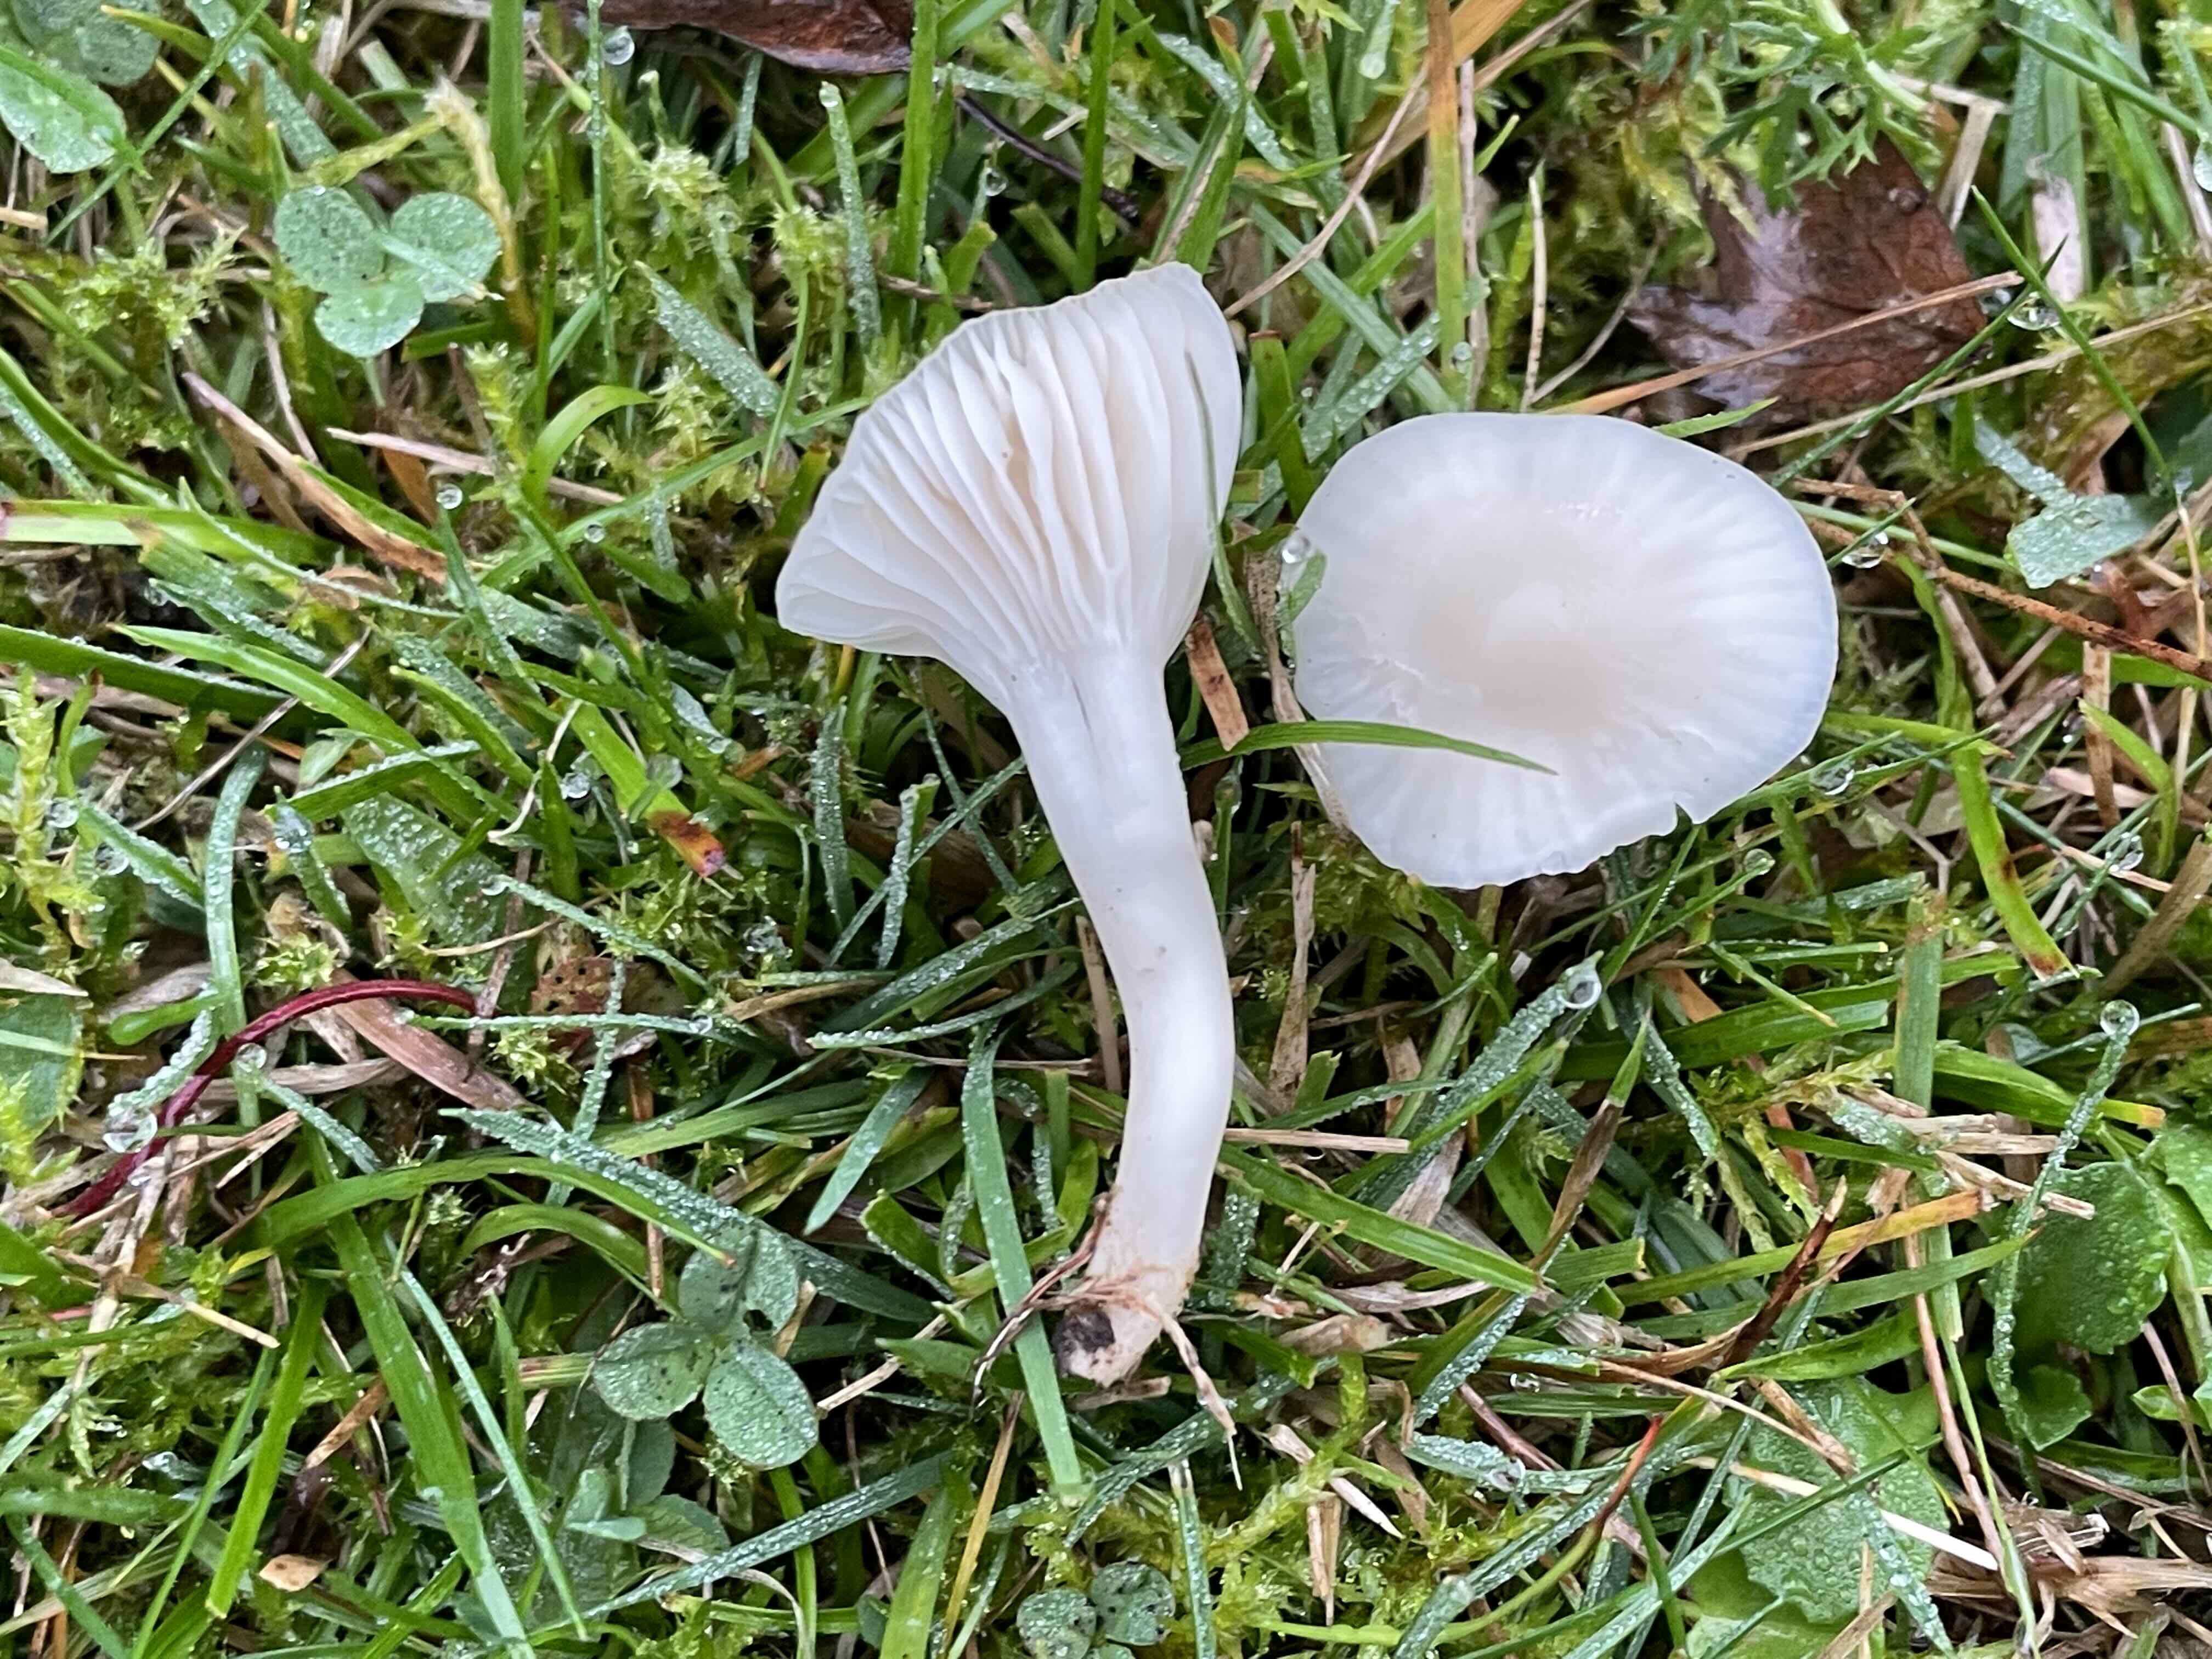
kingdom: Fungi
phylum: Basidiomycota
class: Agaricomycetes
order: Agaricales
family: Hygrophoraceae
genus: Cuphophyllus
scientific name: Cuphophyllus virgineus
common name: snehvid vokshat
